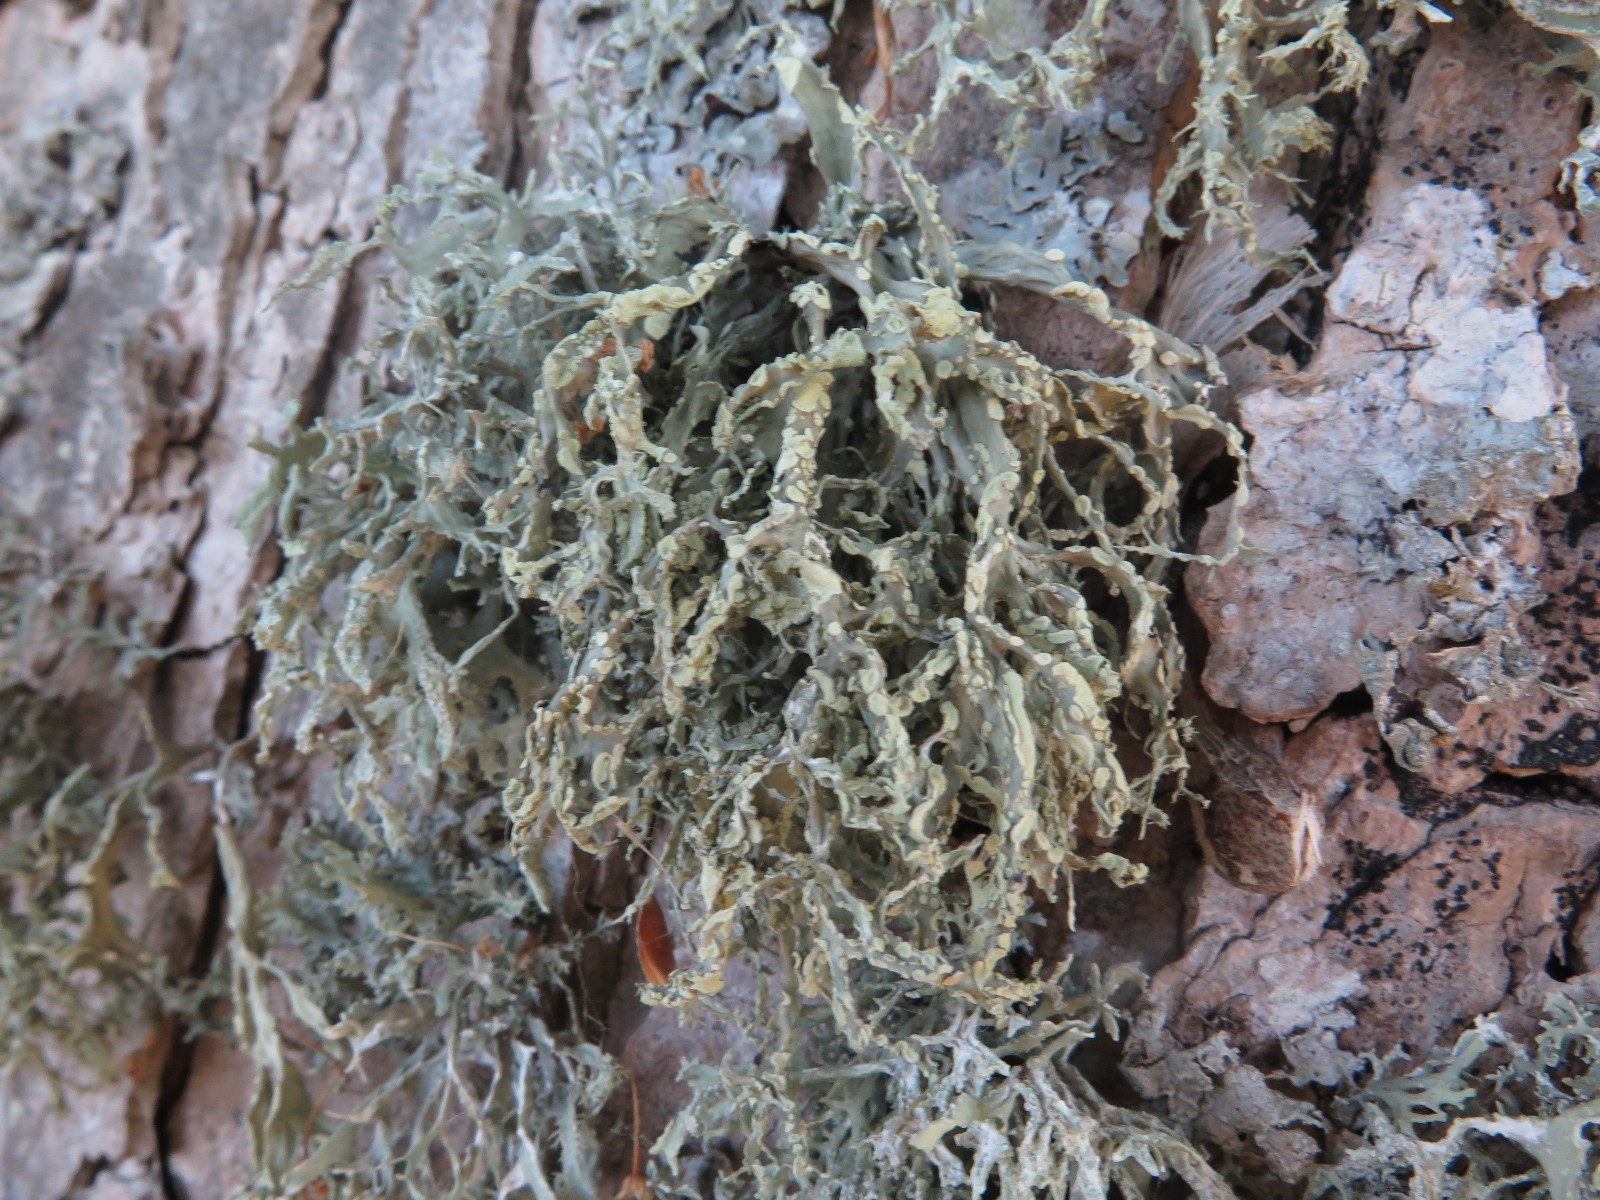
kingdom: Fungi
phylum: Ascomycota
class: Lecanoromycetes
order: Lecanorales
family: Ramalinaceae
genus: Ramalina
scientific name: Ramalina farinacea
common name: melet grenlav
